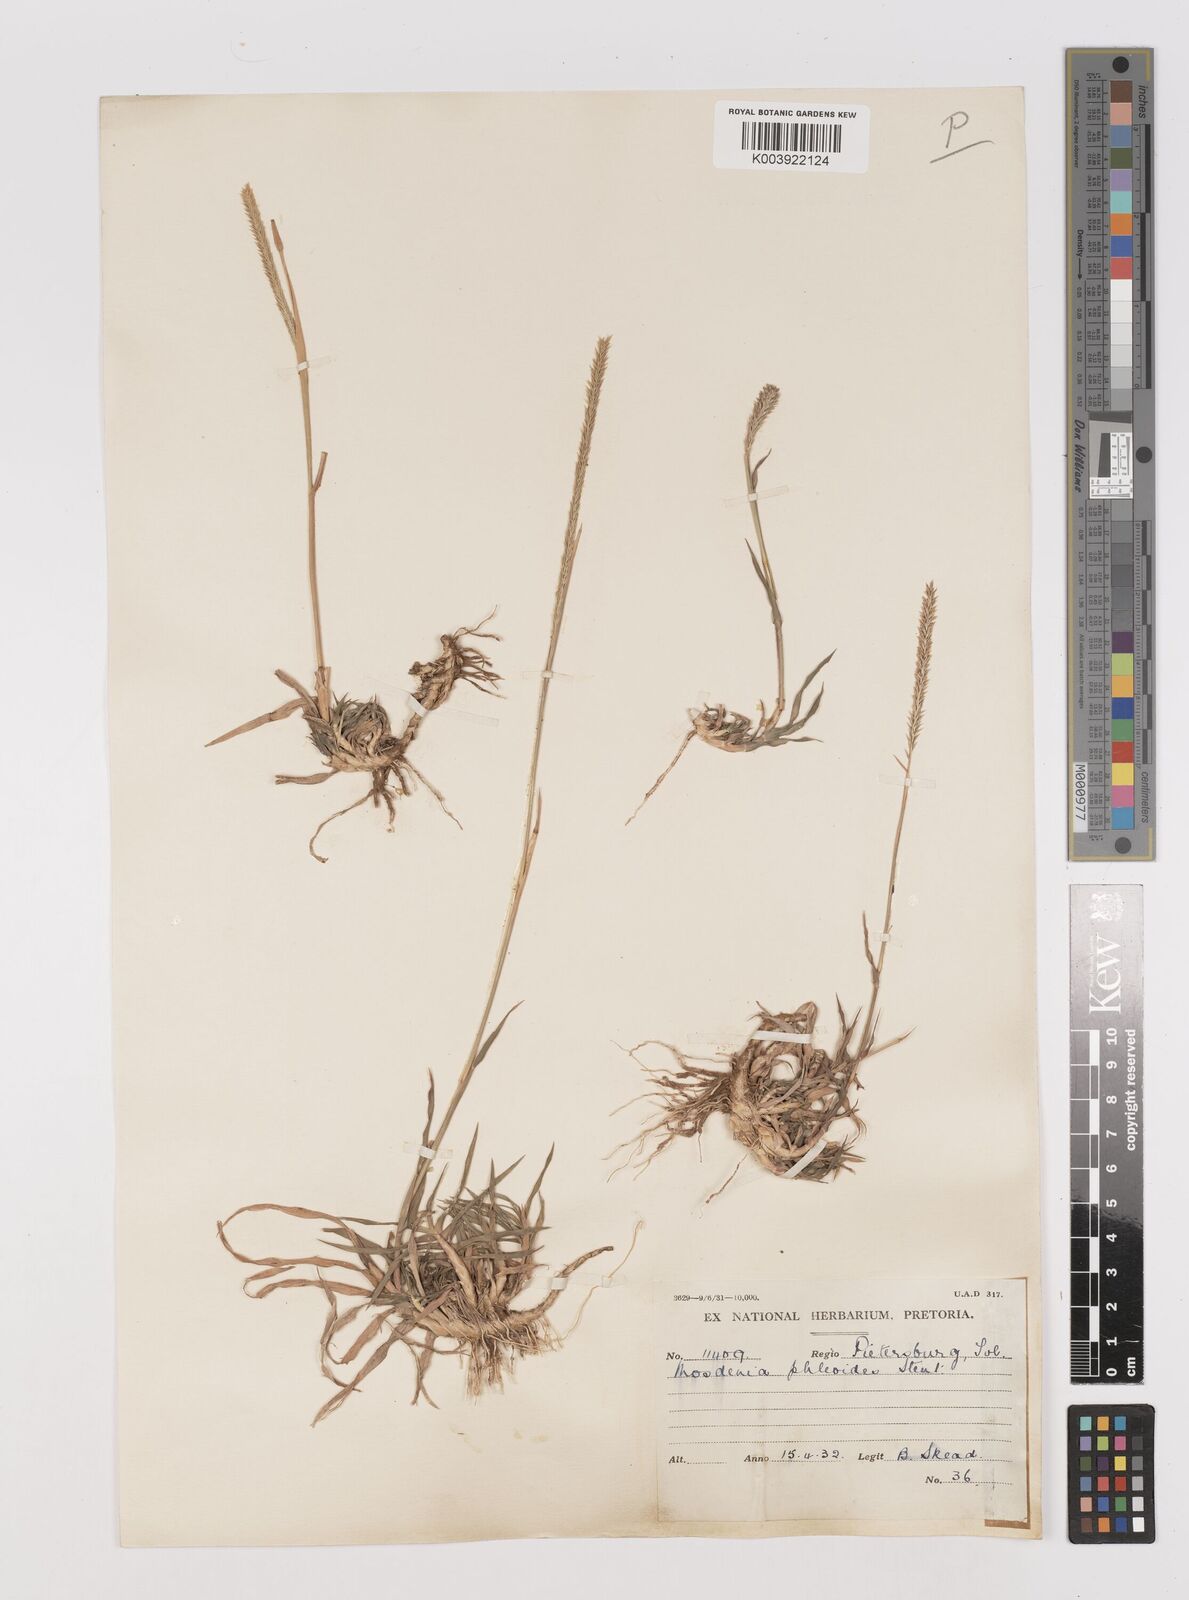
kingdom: Plantae
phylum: Tracheophyta
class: Liliopsida
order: Poales
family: Poaceae
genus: Mosdenia
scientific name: Mosdenia leptostachys
